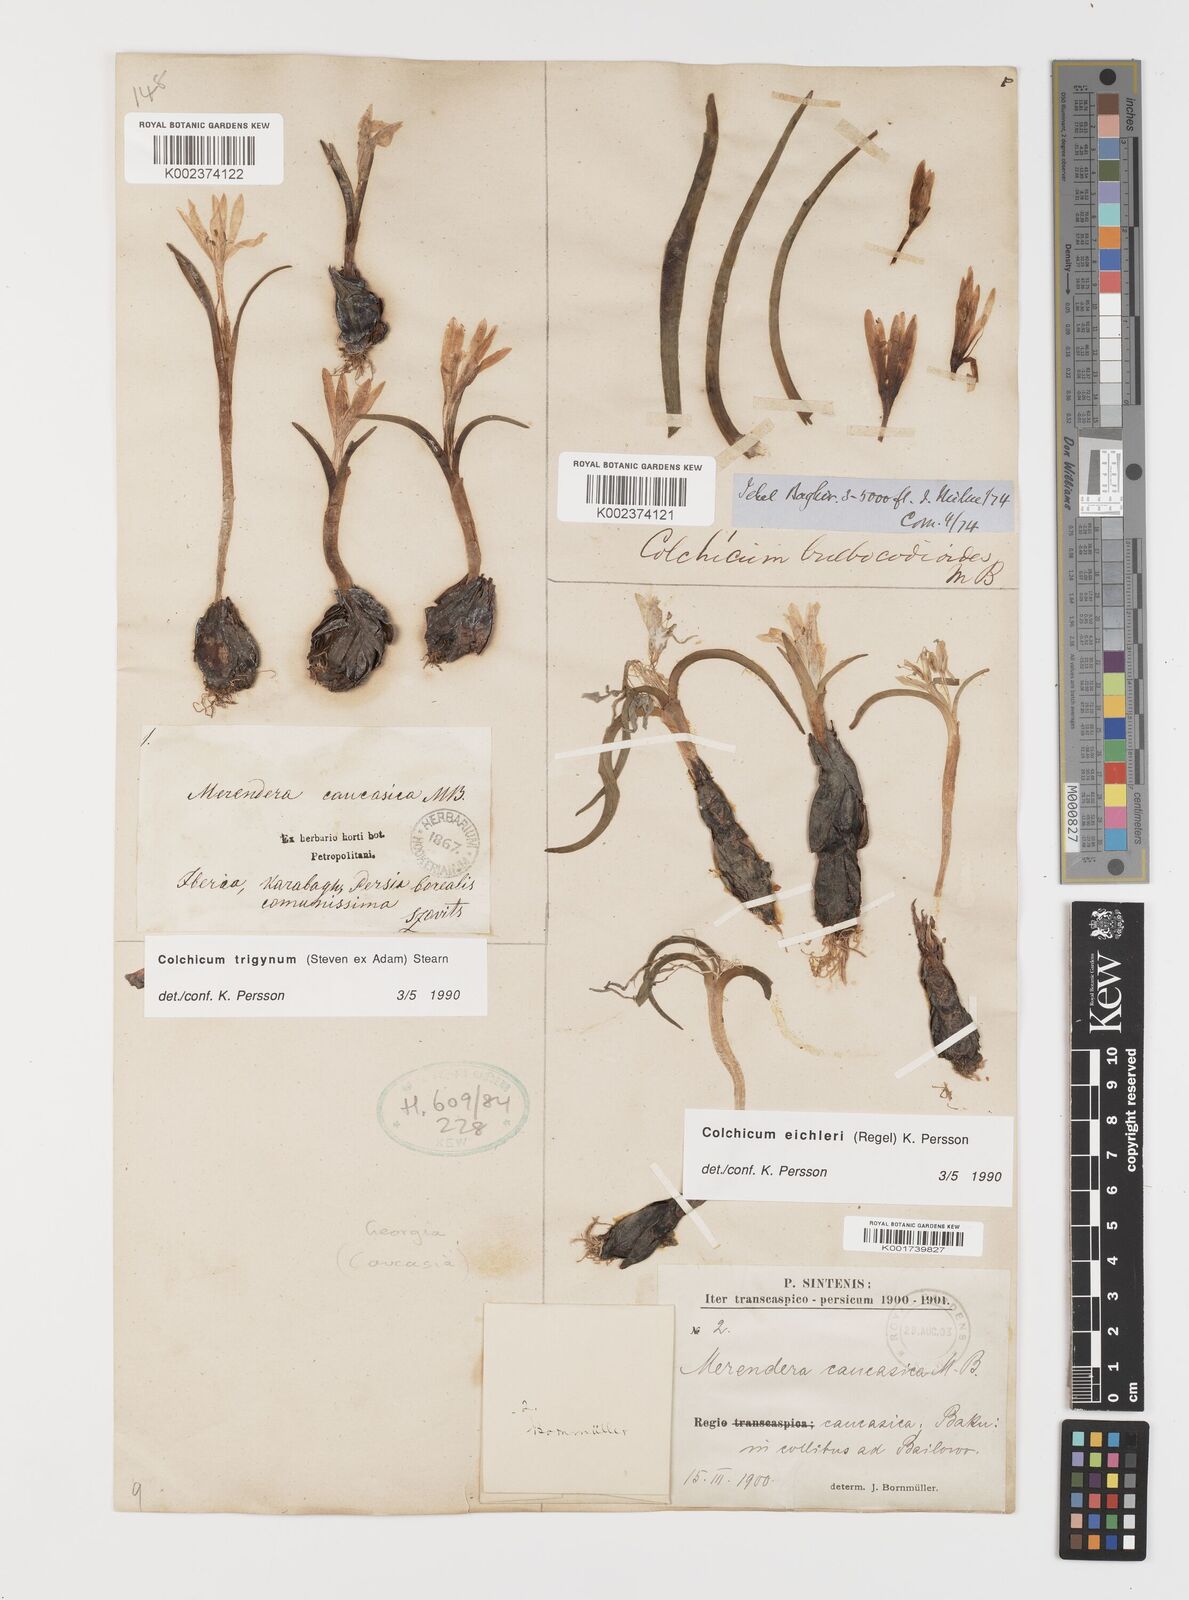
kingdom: Plantae
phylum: Tracheophyta
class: Liliopsida
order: Liliales
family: Colchicaceae
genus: Colchicum
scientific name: Colchicum trigynum
